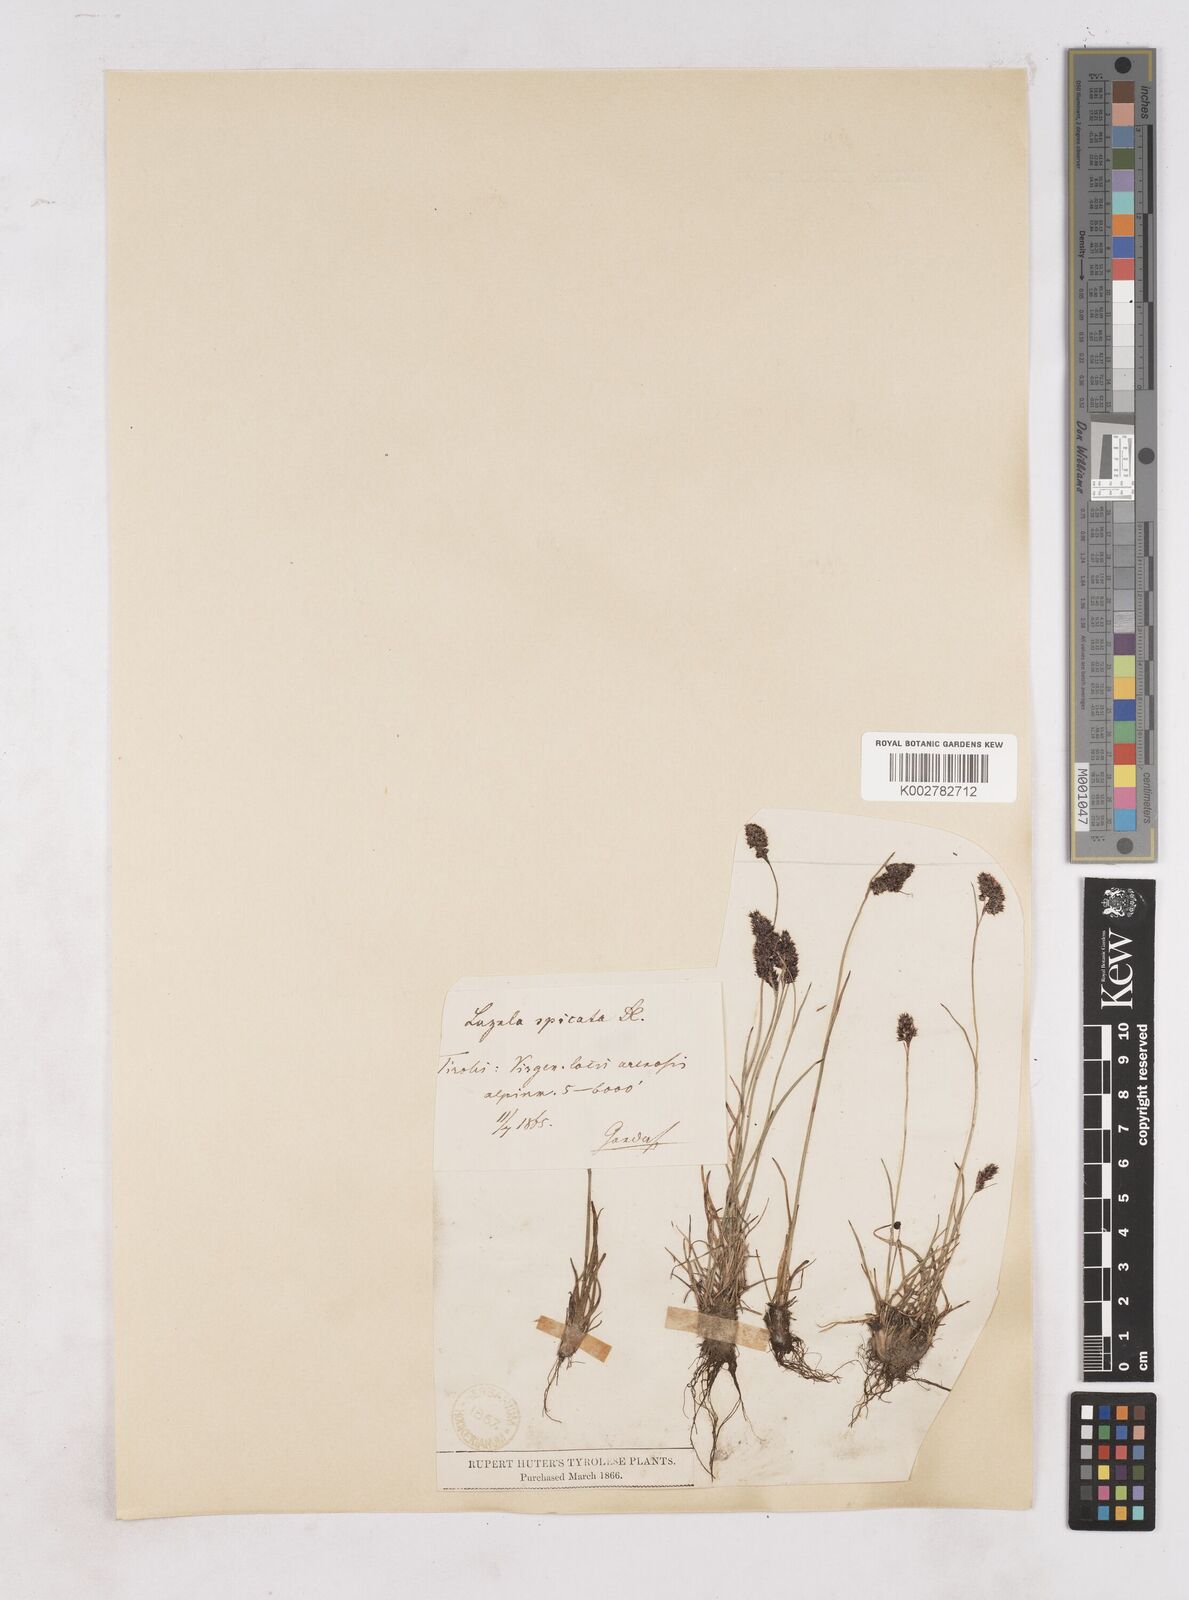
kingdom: Plantae
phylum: Tracheophyta
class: Liliopsida
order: Poales
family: Juncaceae
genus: Luzula
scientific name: Luzula spicata
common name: Spiked wood-rush
